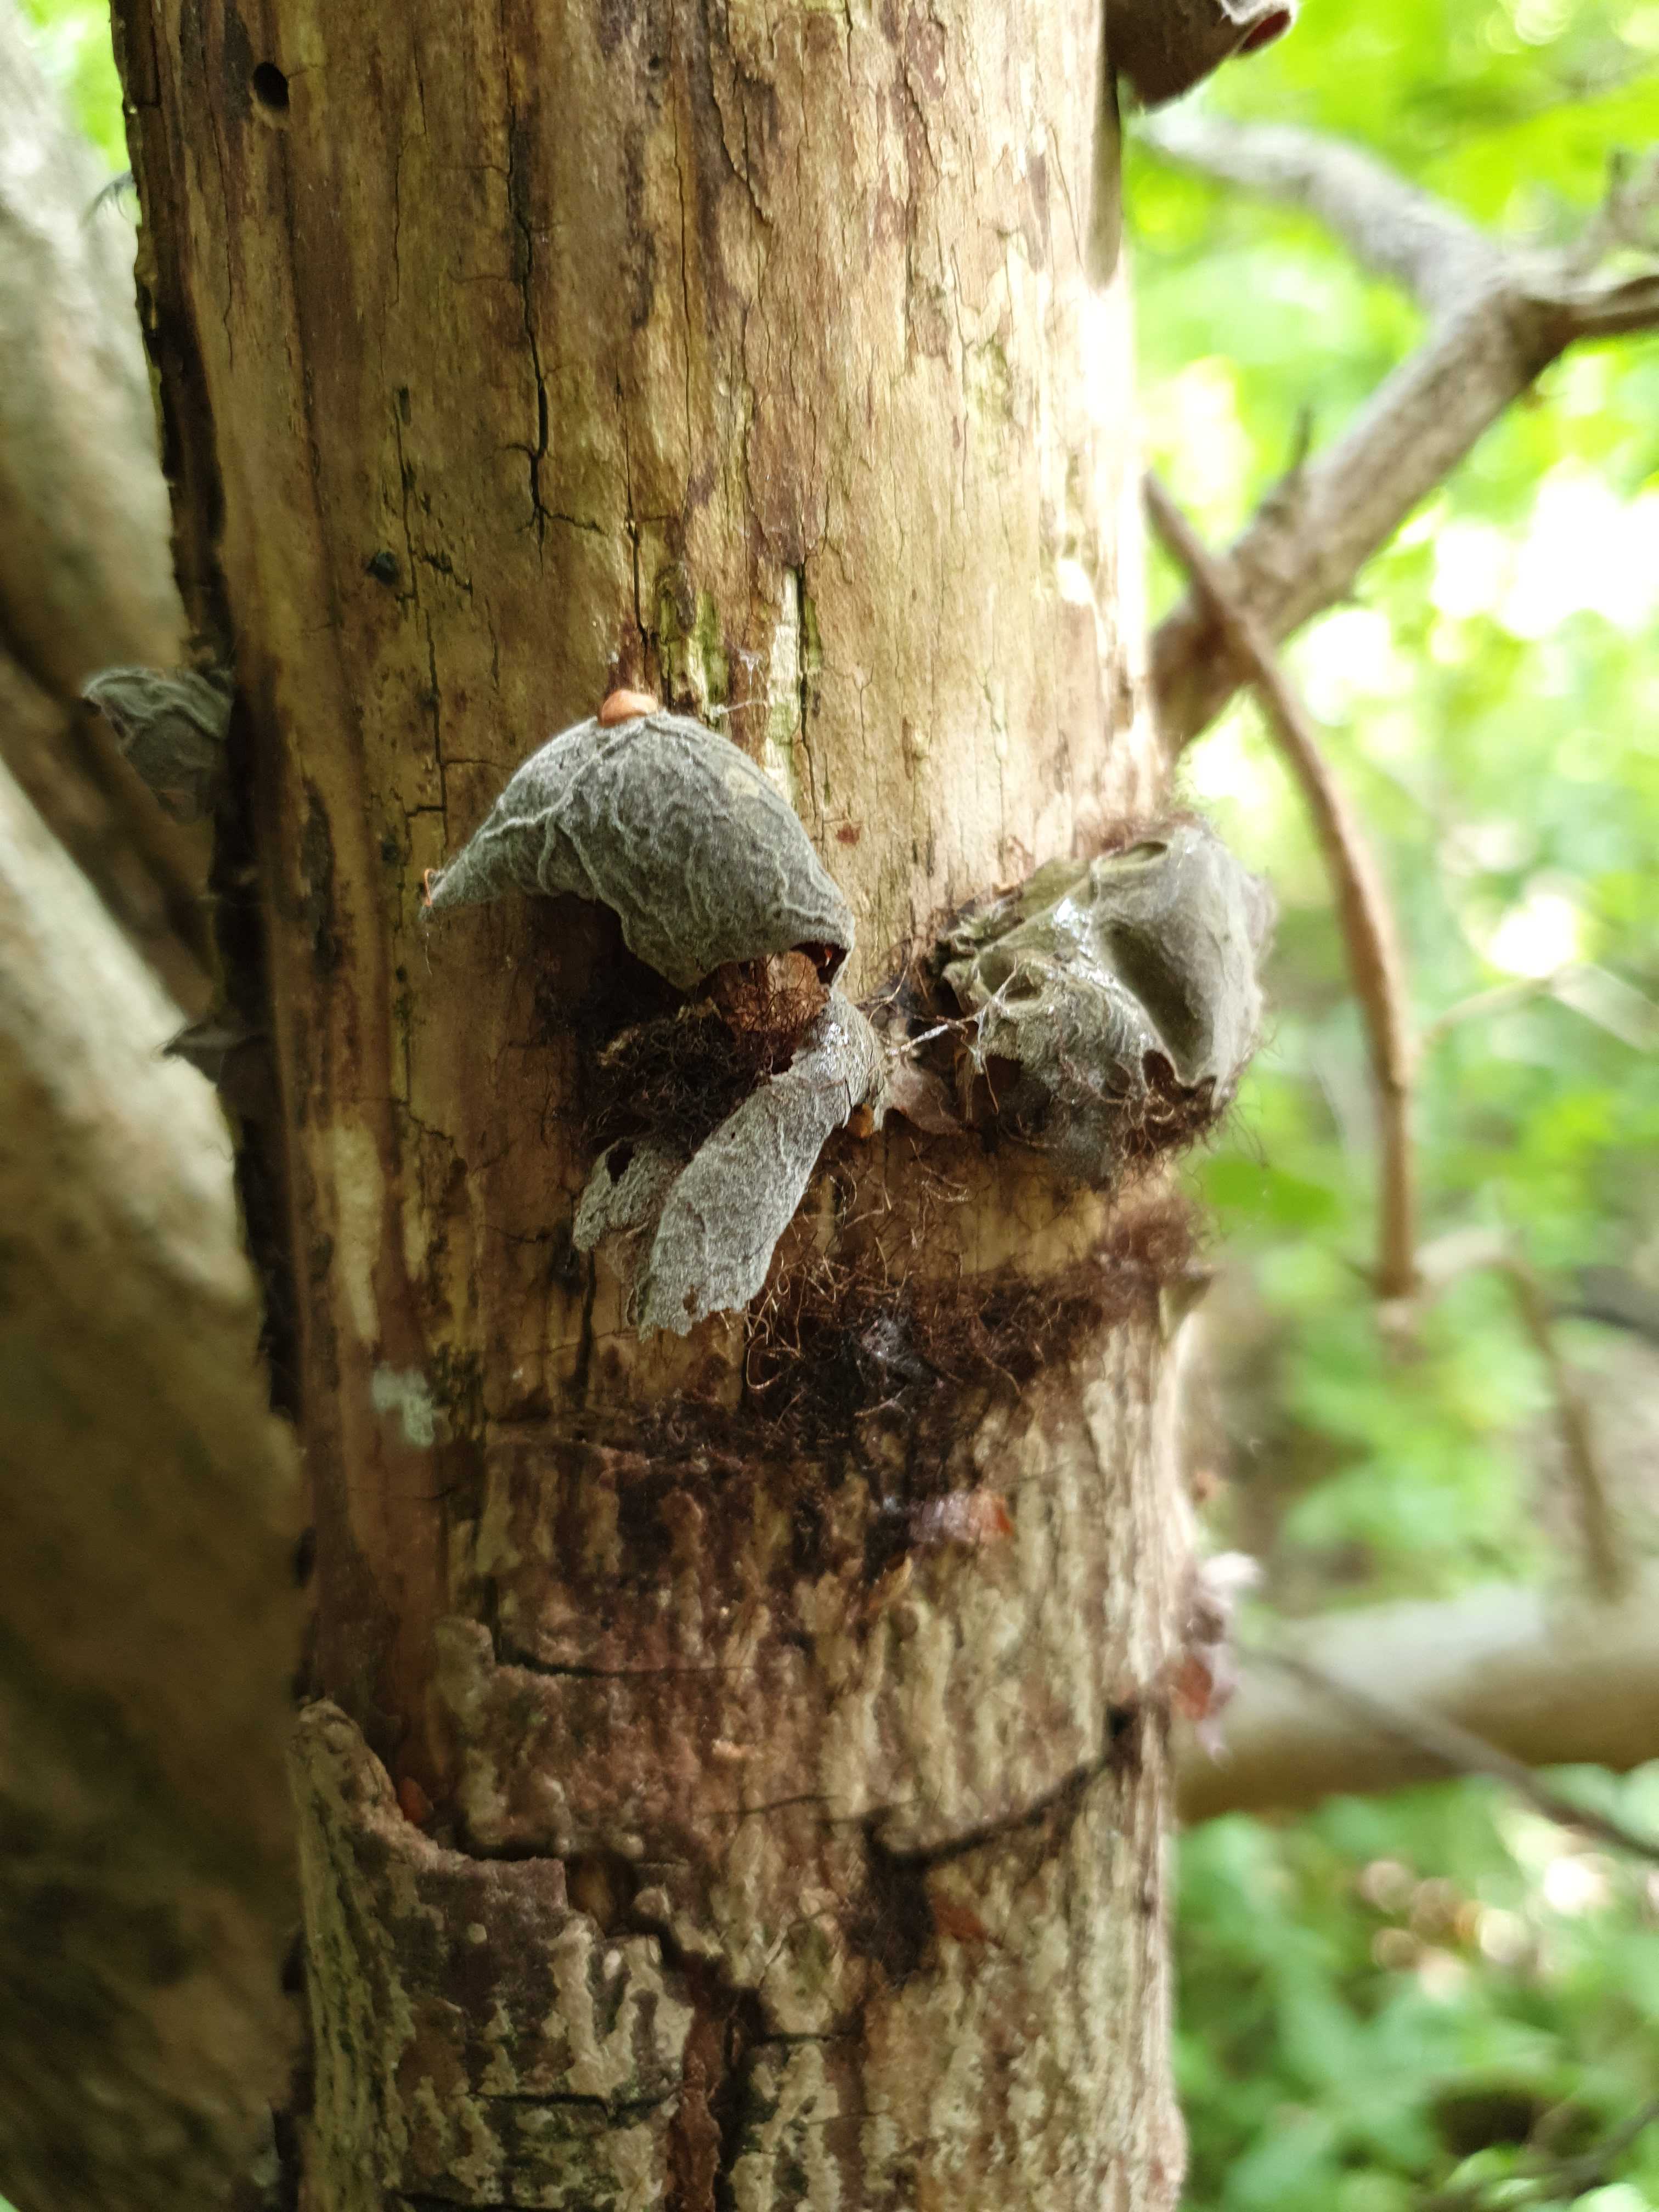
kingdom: Fungi
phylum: Basidiomycota
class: Agaricomycetes
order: Auriculariales
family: Auriculariaceae
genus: Auricularia
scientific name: Auricularia auricula-judae
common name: almindelig judasøre
